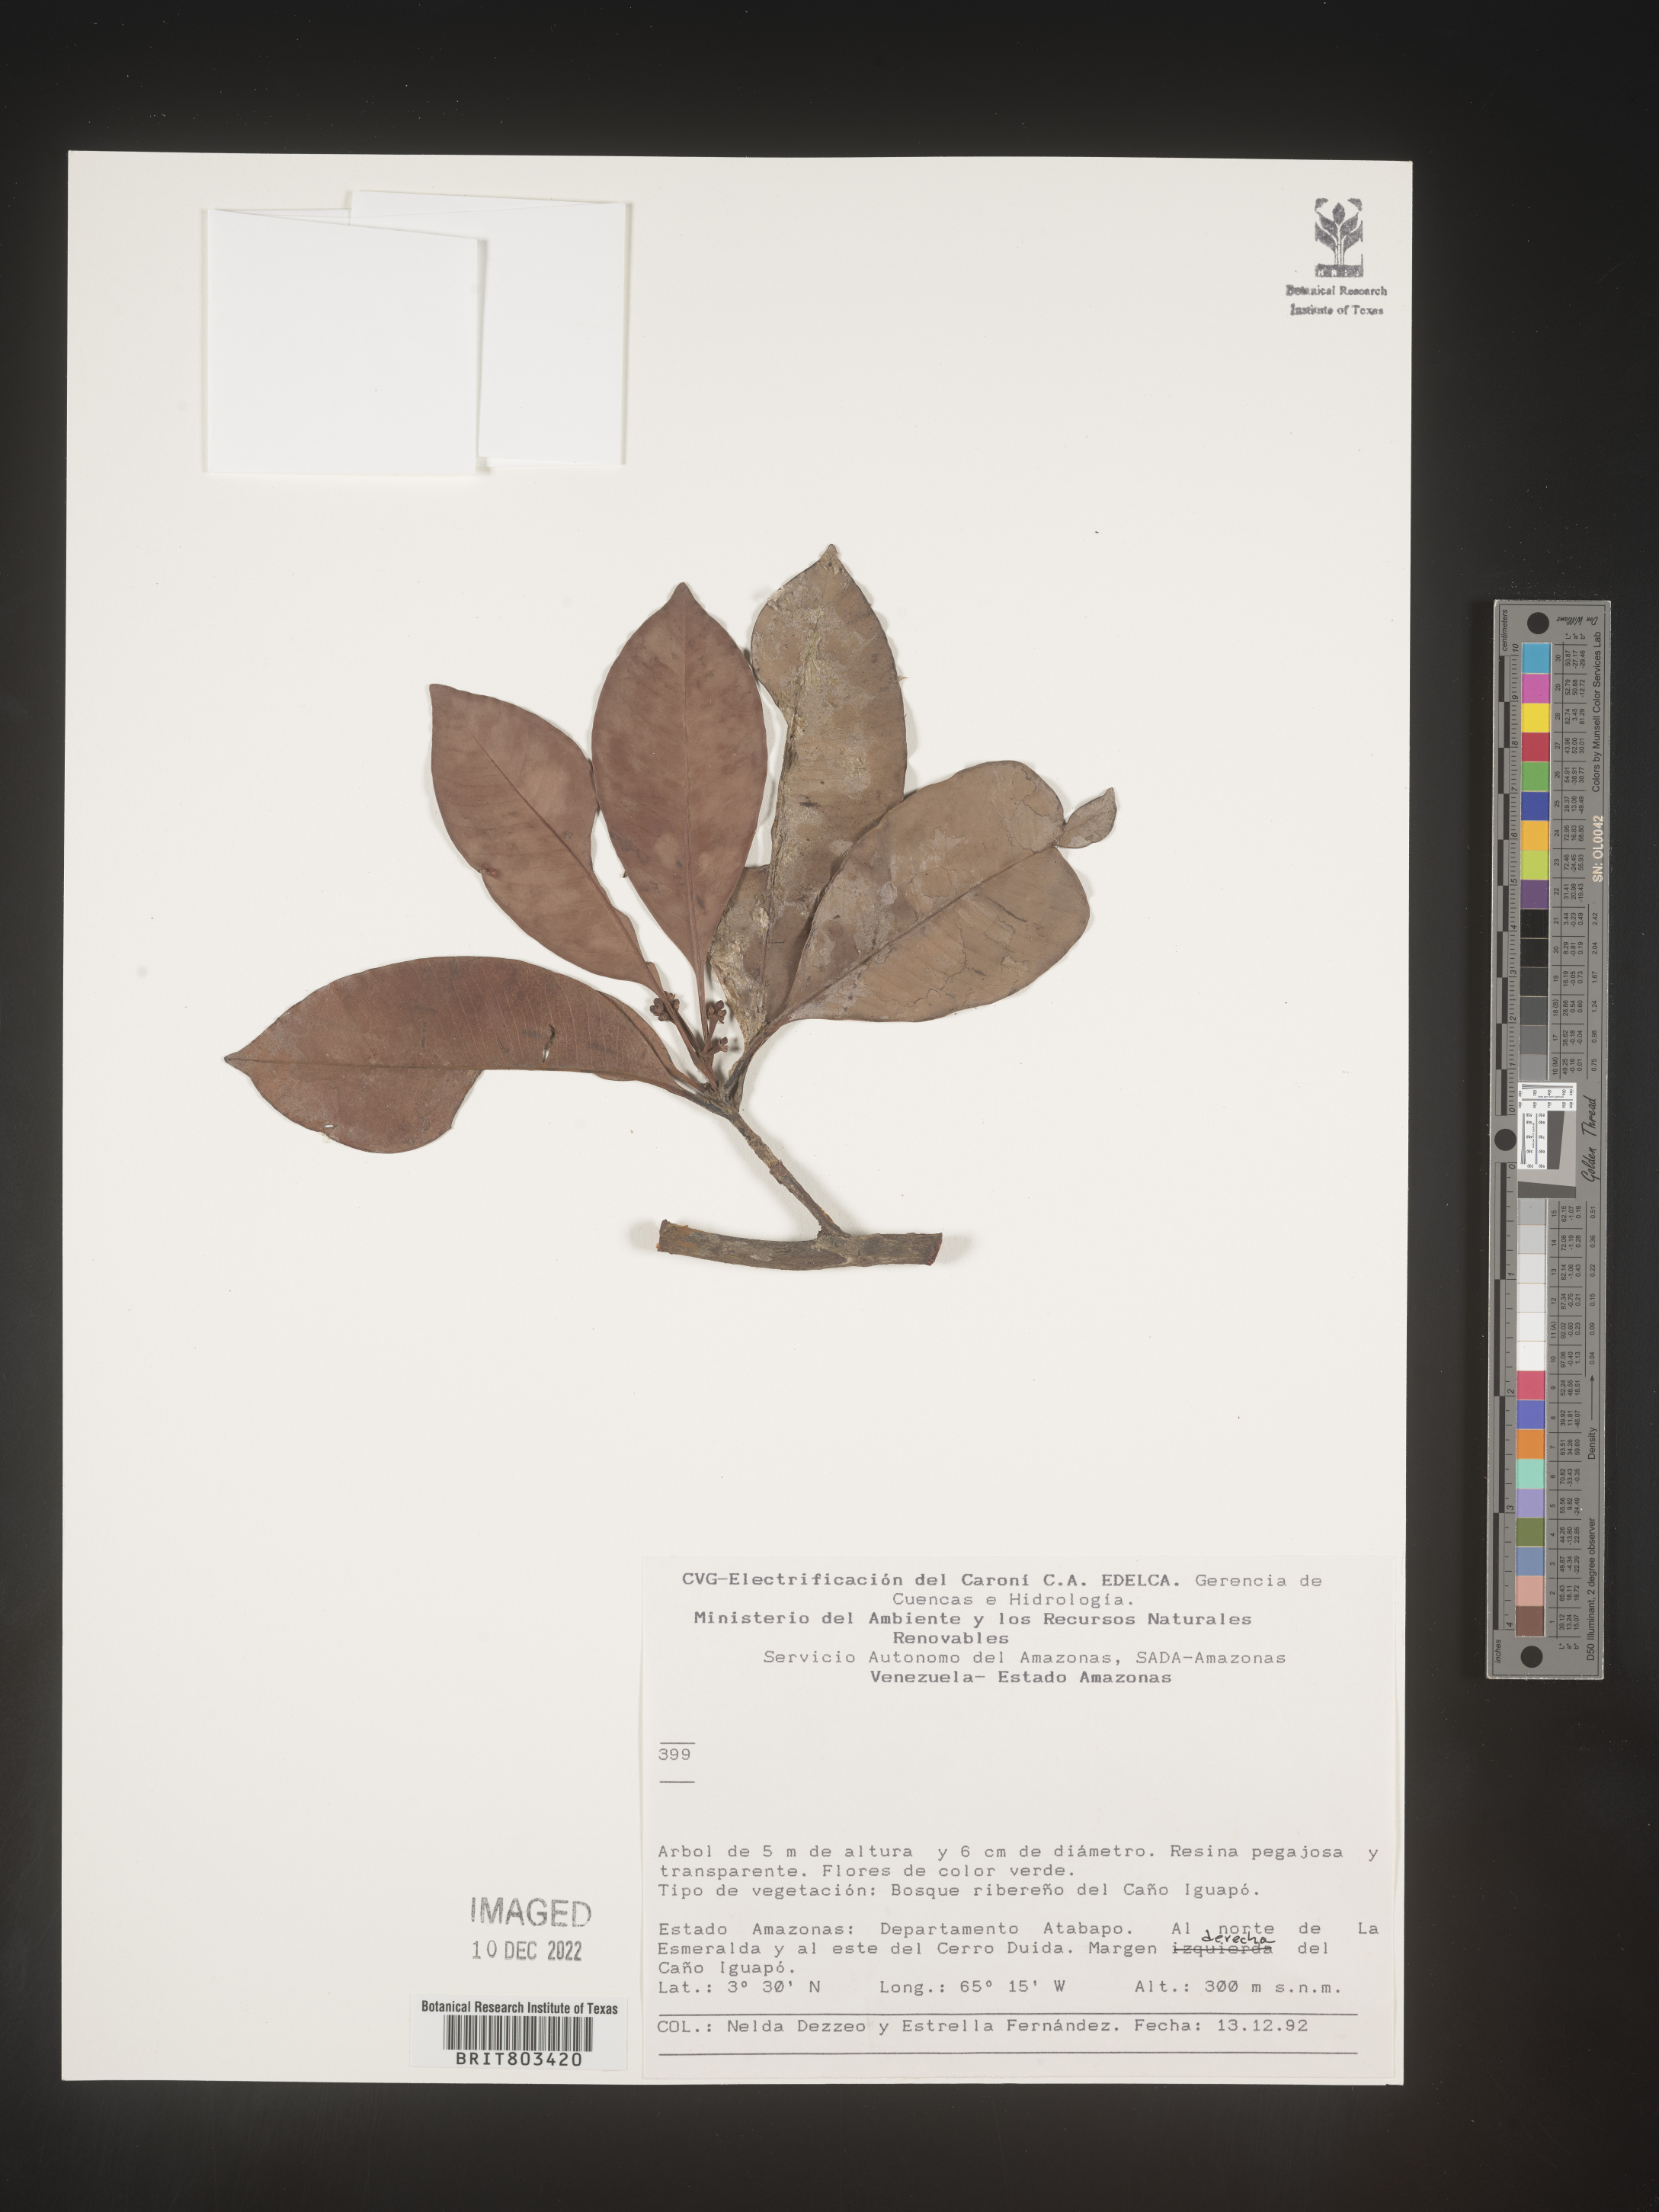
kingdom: Plantae
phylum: Tracheophyta
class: Magnoliopsida
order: Malpighiales
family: Clusiaceae
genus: Tovomita
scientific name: Tovomita
